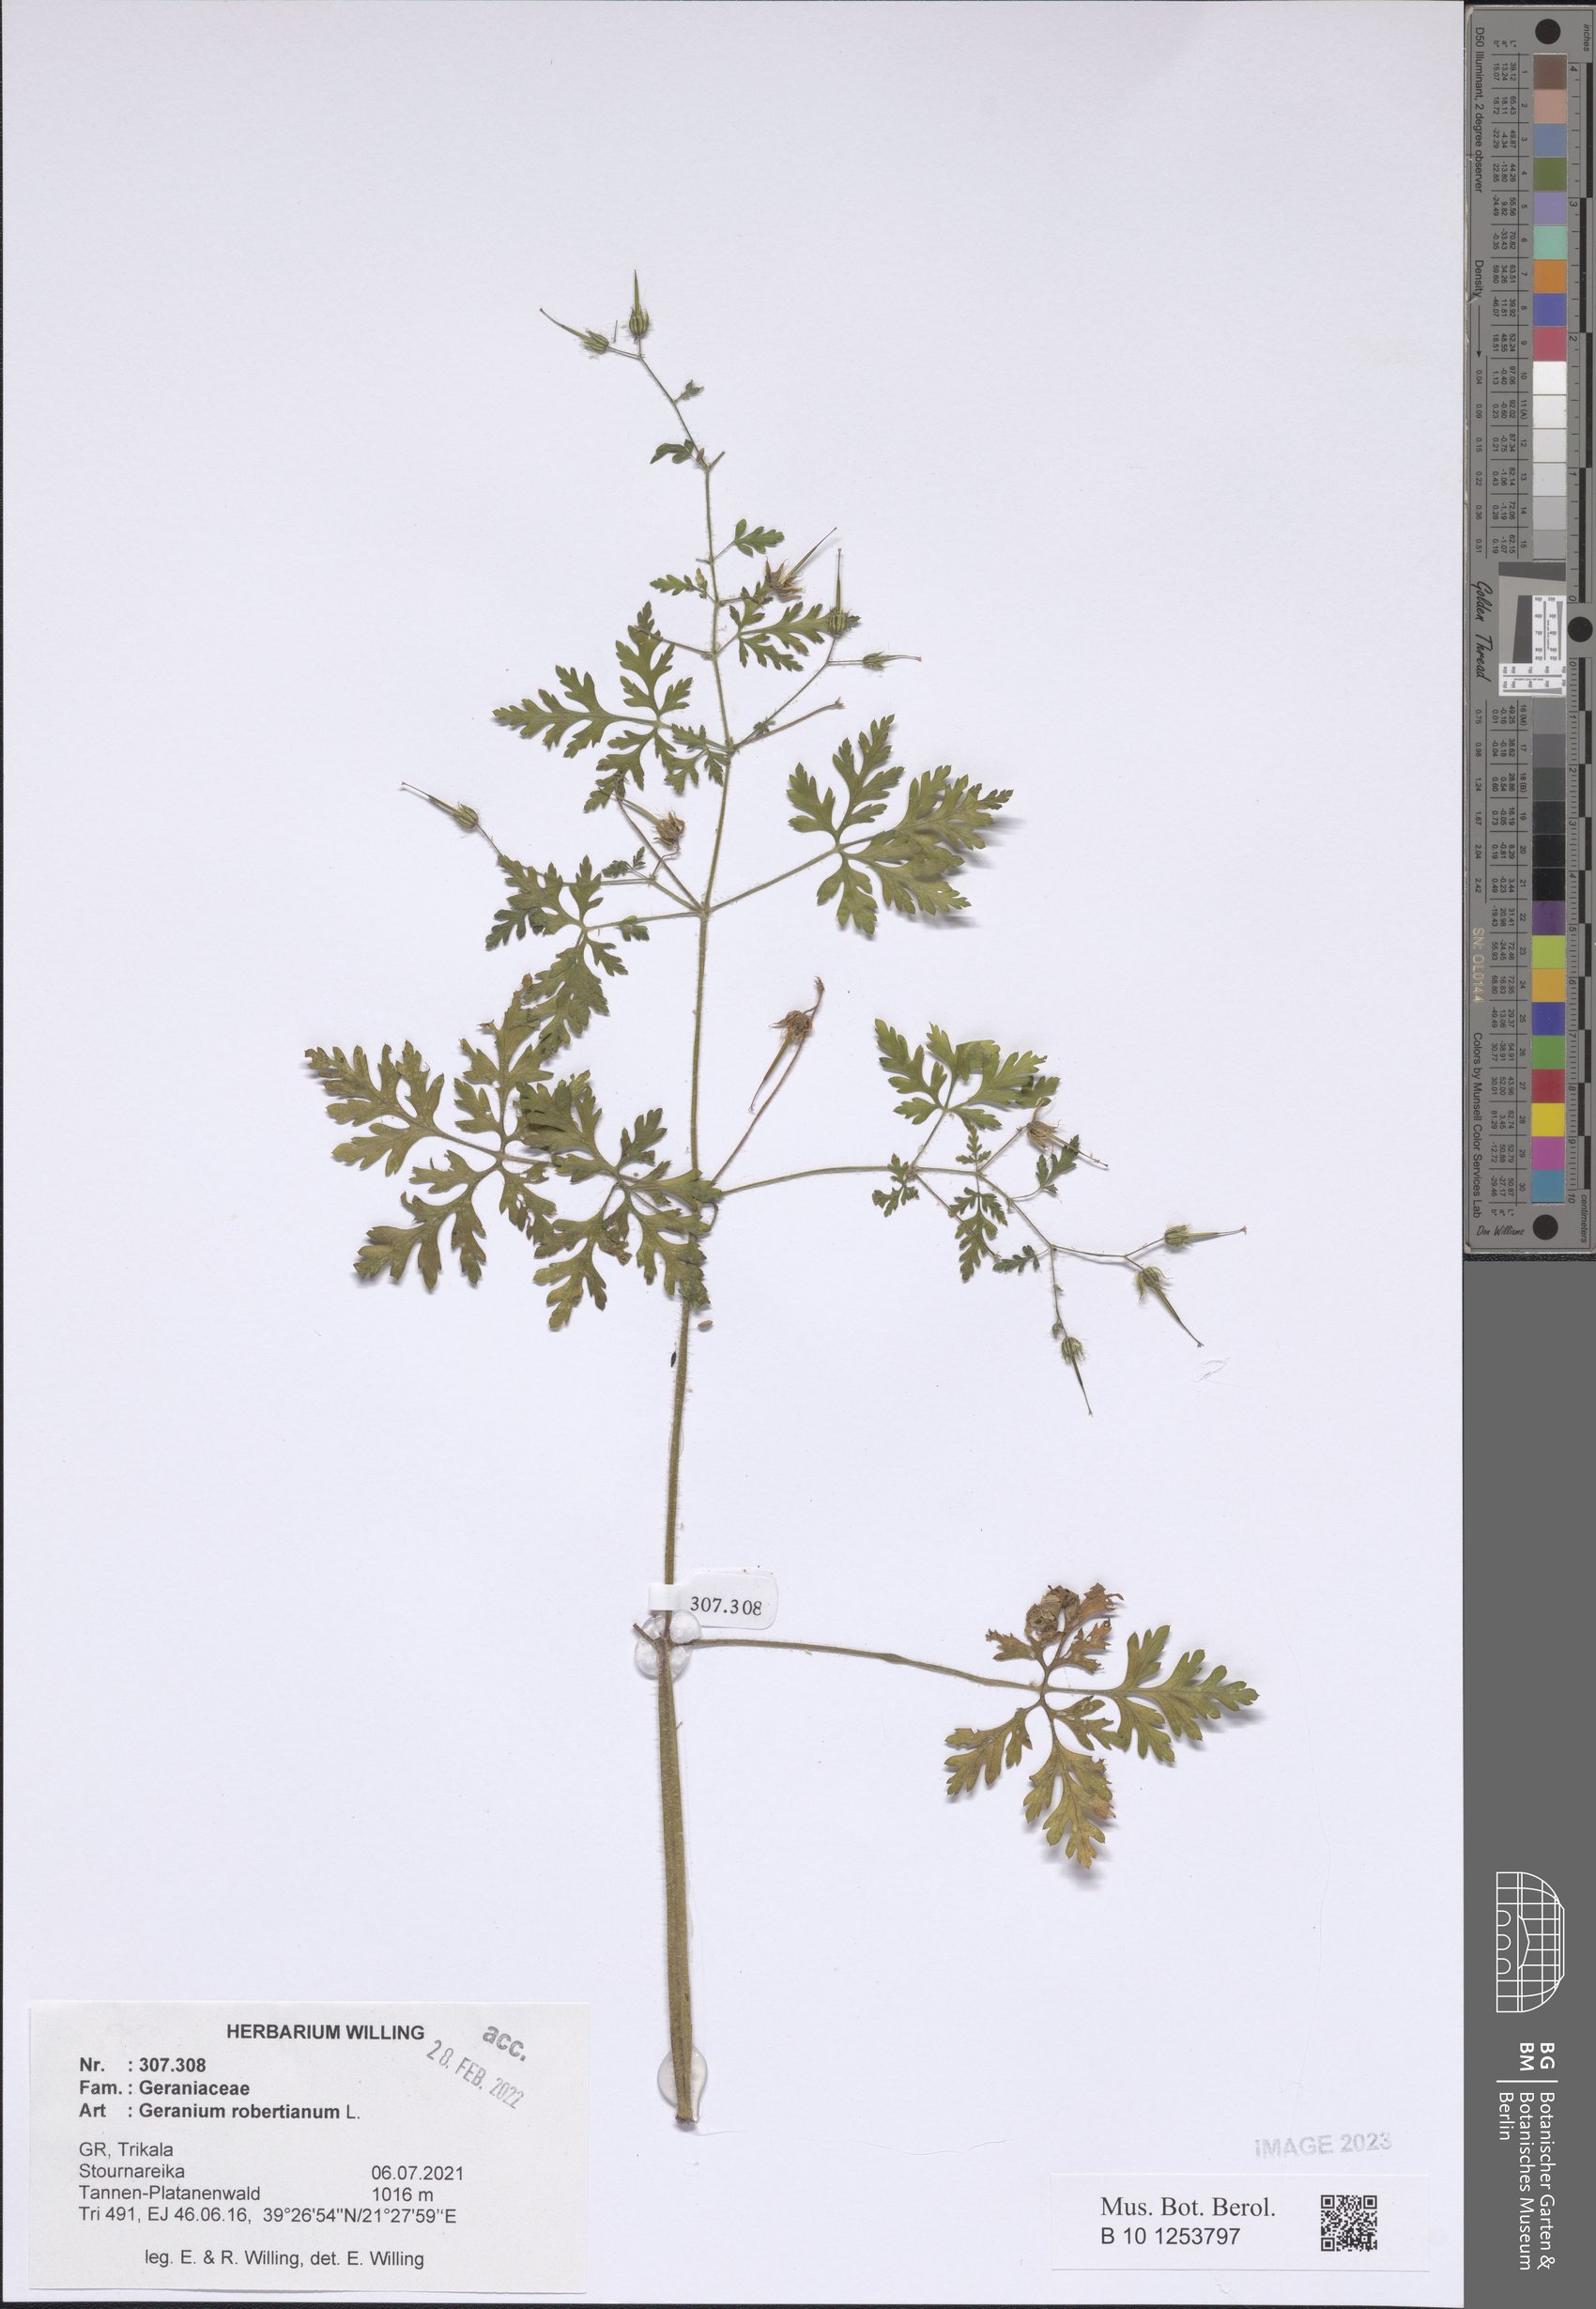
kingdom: Plantae
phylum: Tracheophyta
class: Magnoliopsida
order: Geraniales
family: Geraniaceae
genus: Geranium
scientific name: Geranium robertianum
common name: Herb-robert
